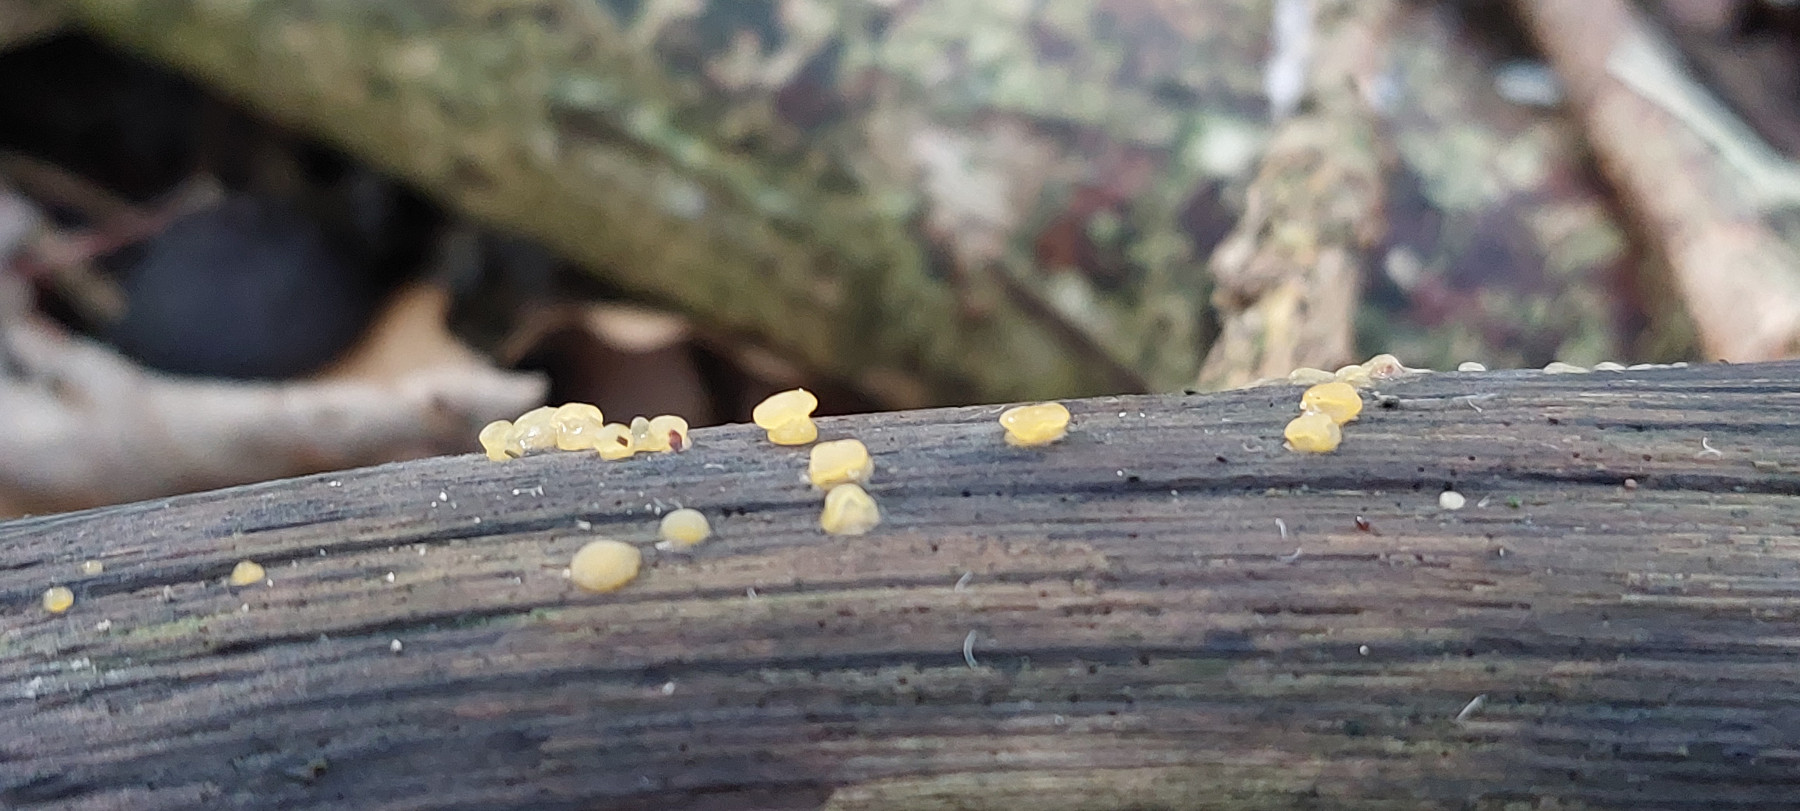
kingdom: Fungi
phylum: Basidiomycota
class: Dacrymycetes
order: Dacrymycetales
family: Dacrymycetaceae
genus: Dacrymyces
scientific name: Dacrymyces capitatus
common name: stilket tåresvamp
